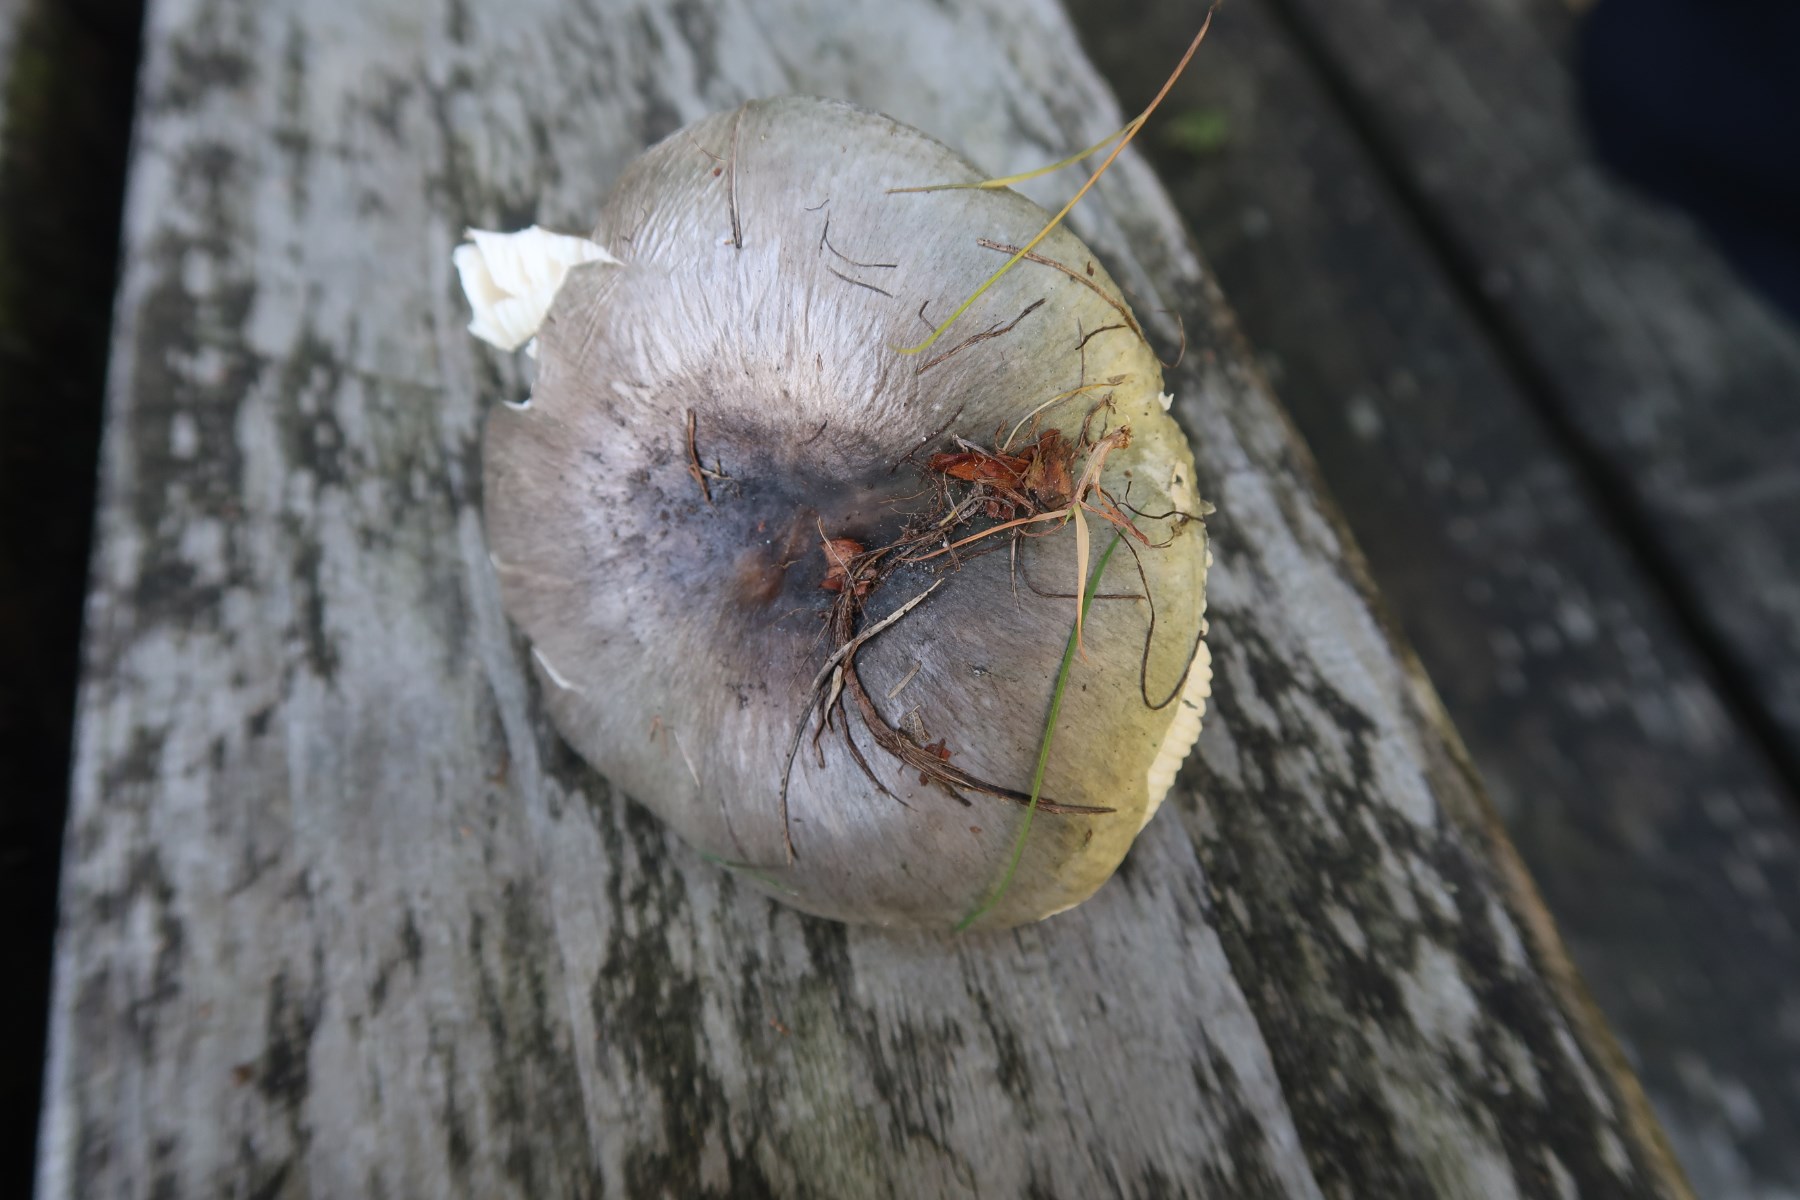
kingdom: Fungi
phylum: Basidiomycota
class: Agaricomycetes
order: Russulales
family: Russulaceae
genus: Russula
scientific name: Russula heterophylla
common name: gaffelbladet skørhat
